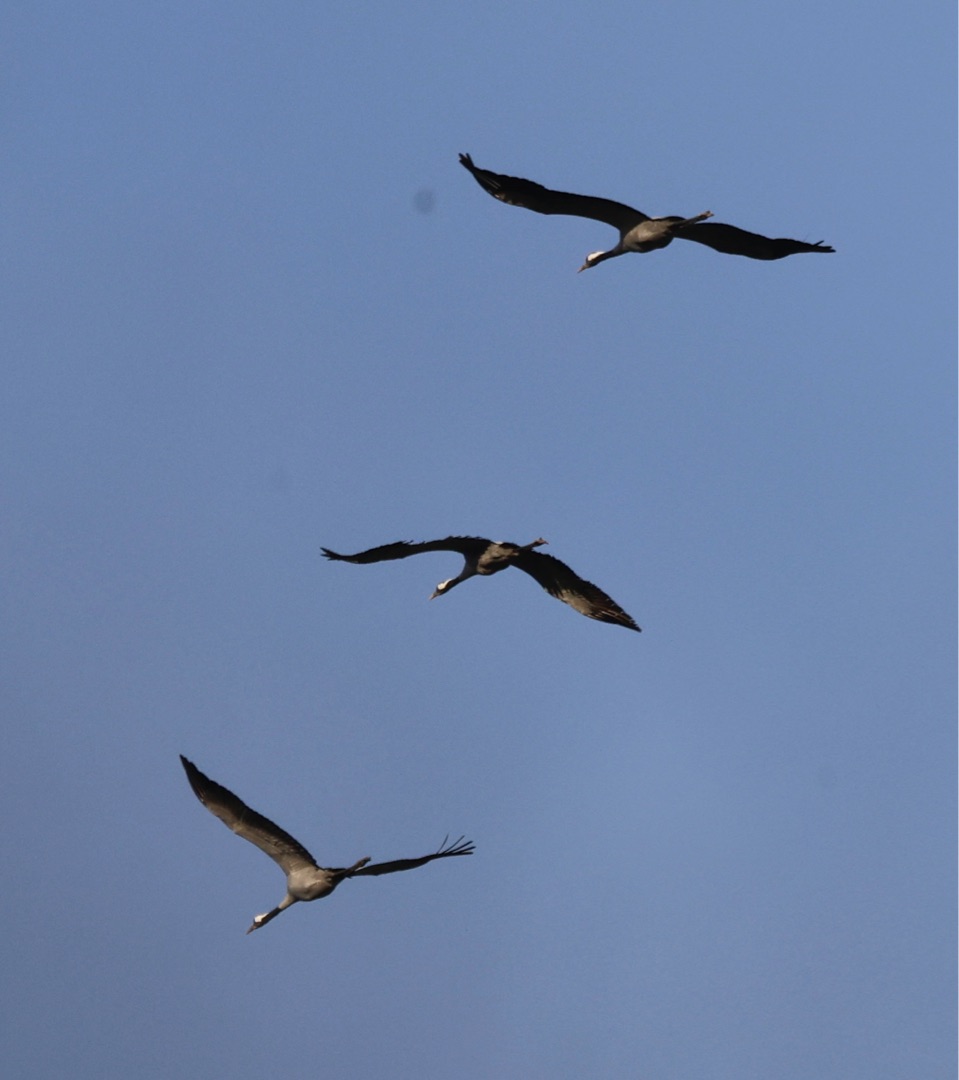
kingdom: Animalia
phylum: Chordata
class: Aves
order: Gruiformes
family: Gruidae
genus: Grus
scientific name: Grus grus
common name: Trane
